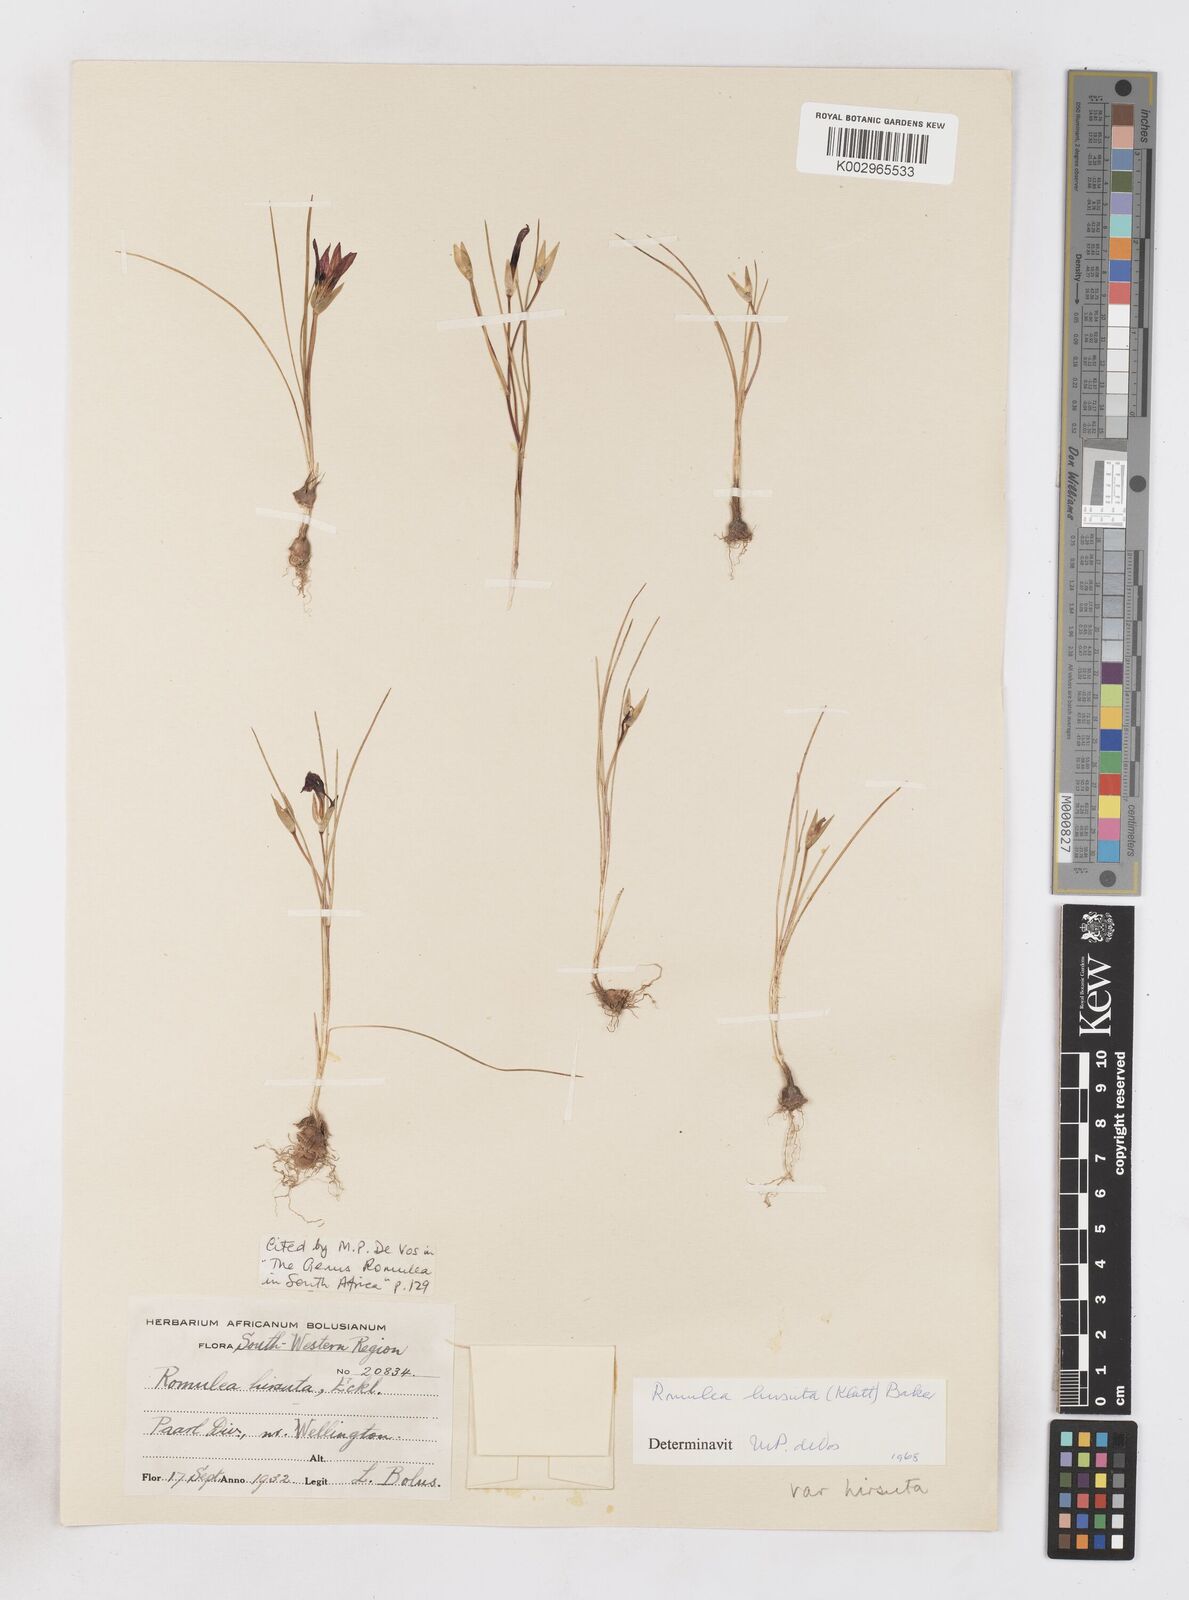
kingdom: Plantae
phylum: Tracheophyta
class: Liliopsida
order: Asparagales
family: Iridaceae
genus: Romulea
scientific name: Romulea hirsuta
